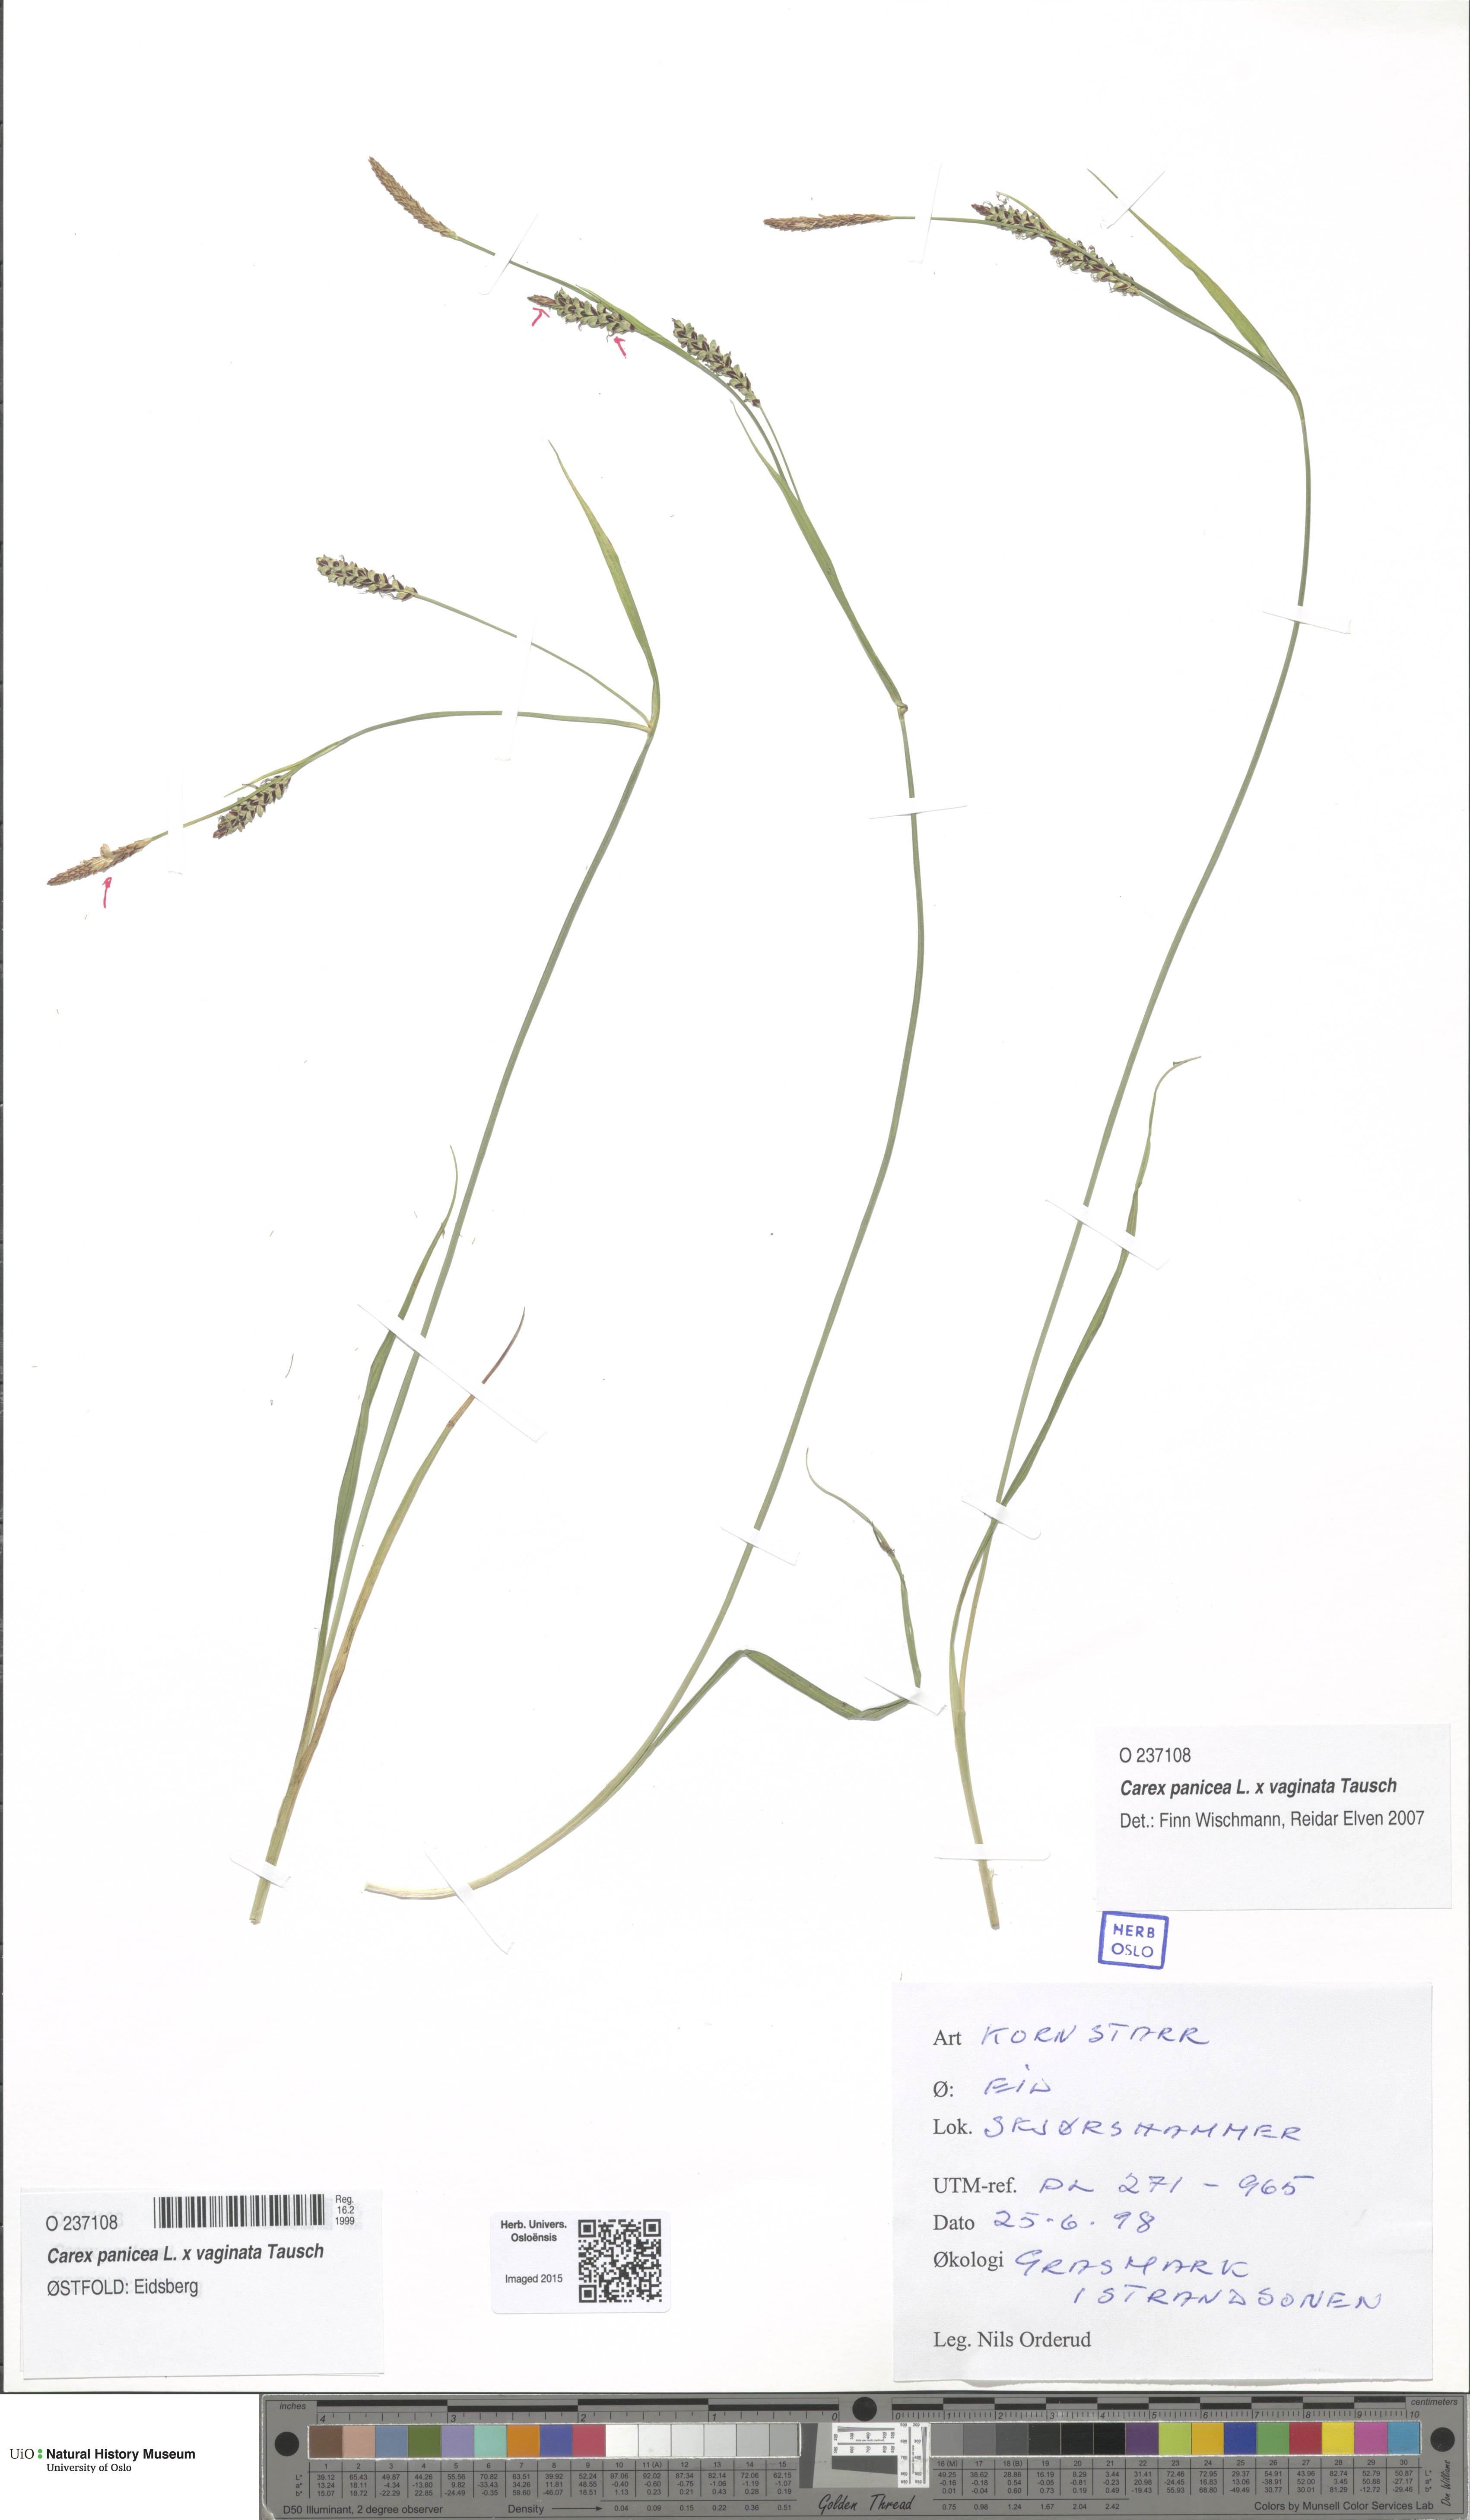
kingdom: Plantae
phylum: Tracheophyta
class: Liliopsida
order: Poales
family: Cyperaceae
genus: Carex
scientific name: Carex
